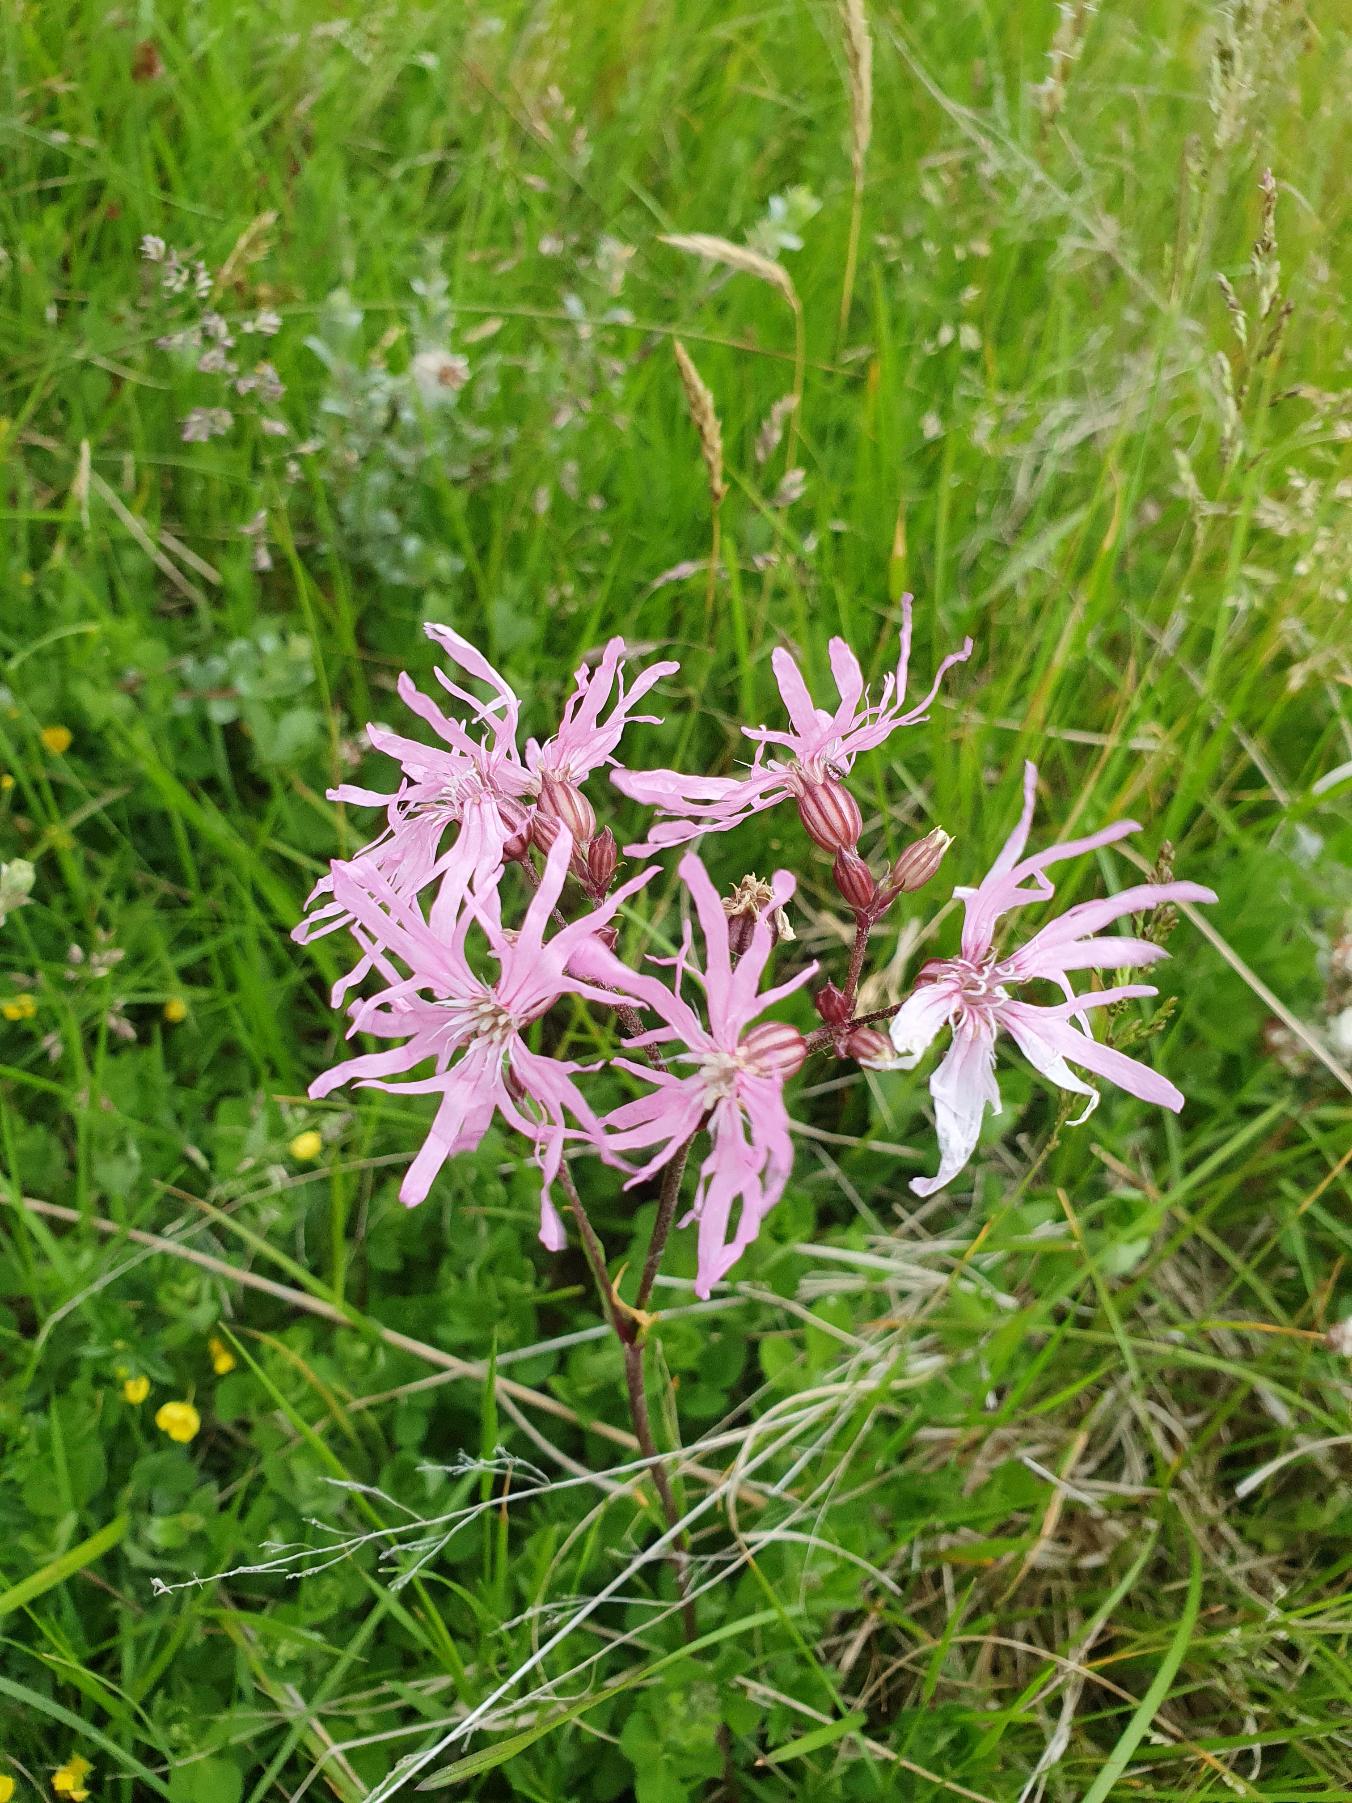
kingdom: Plantae
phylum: Tracheophyta
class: Magnoliopsida
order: Caryophyllales
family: Caryophyllaceae
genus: Silene
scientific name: Silene flos-cuculi
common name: Trævlekrone
